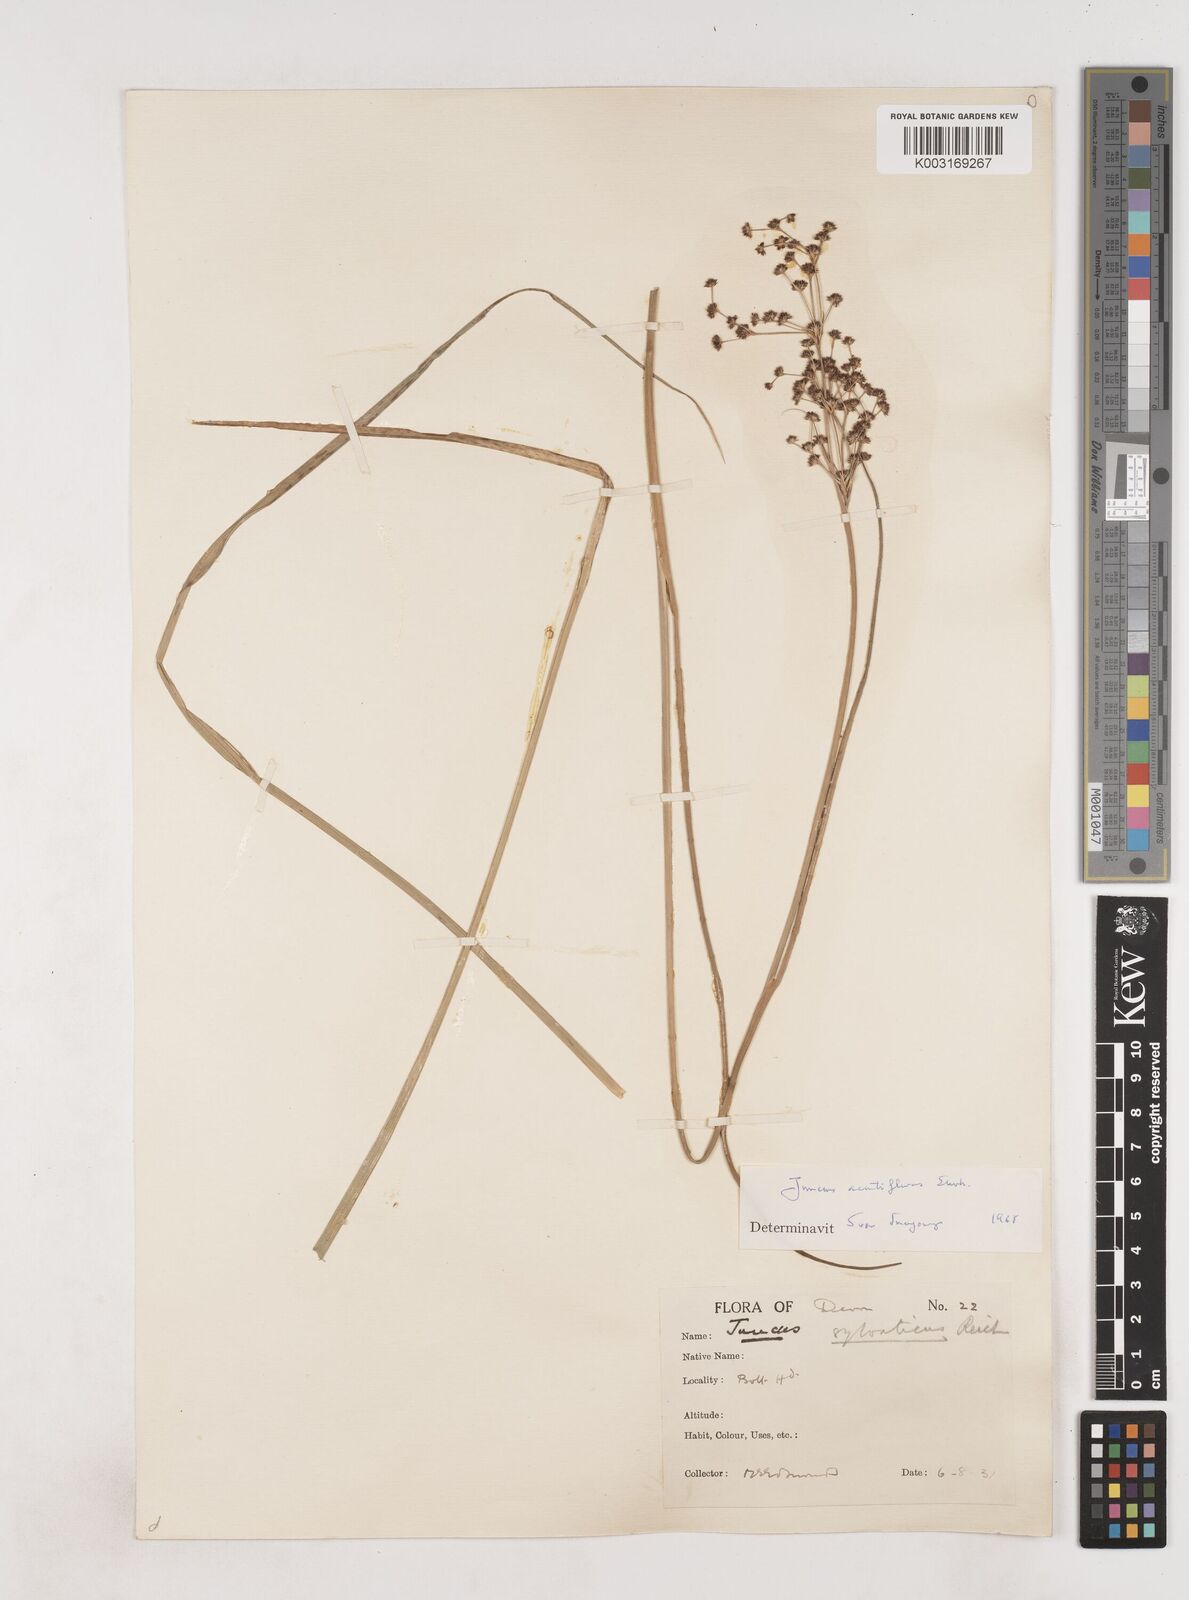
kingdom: Plantae
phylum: Tracheophyta
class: Liliopsida
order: Poales
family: Juncaceae
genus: Juncus
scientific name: Juncus acutiflorus
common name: Sharp-flowered rush
